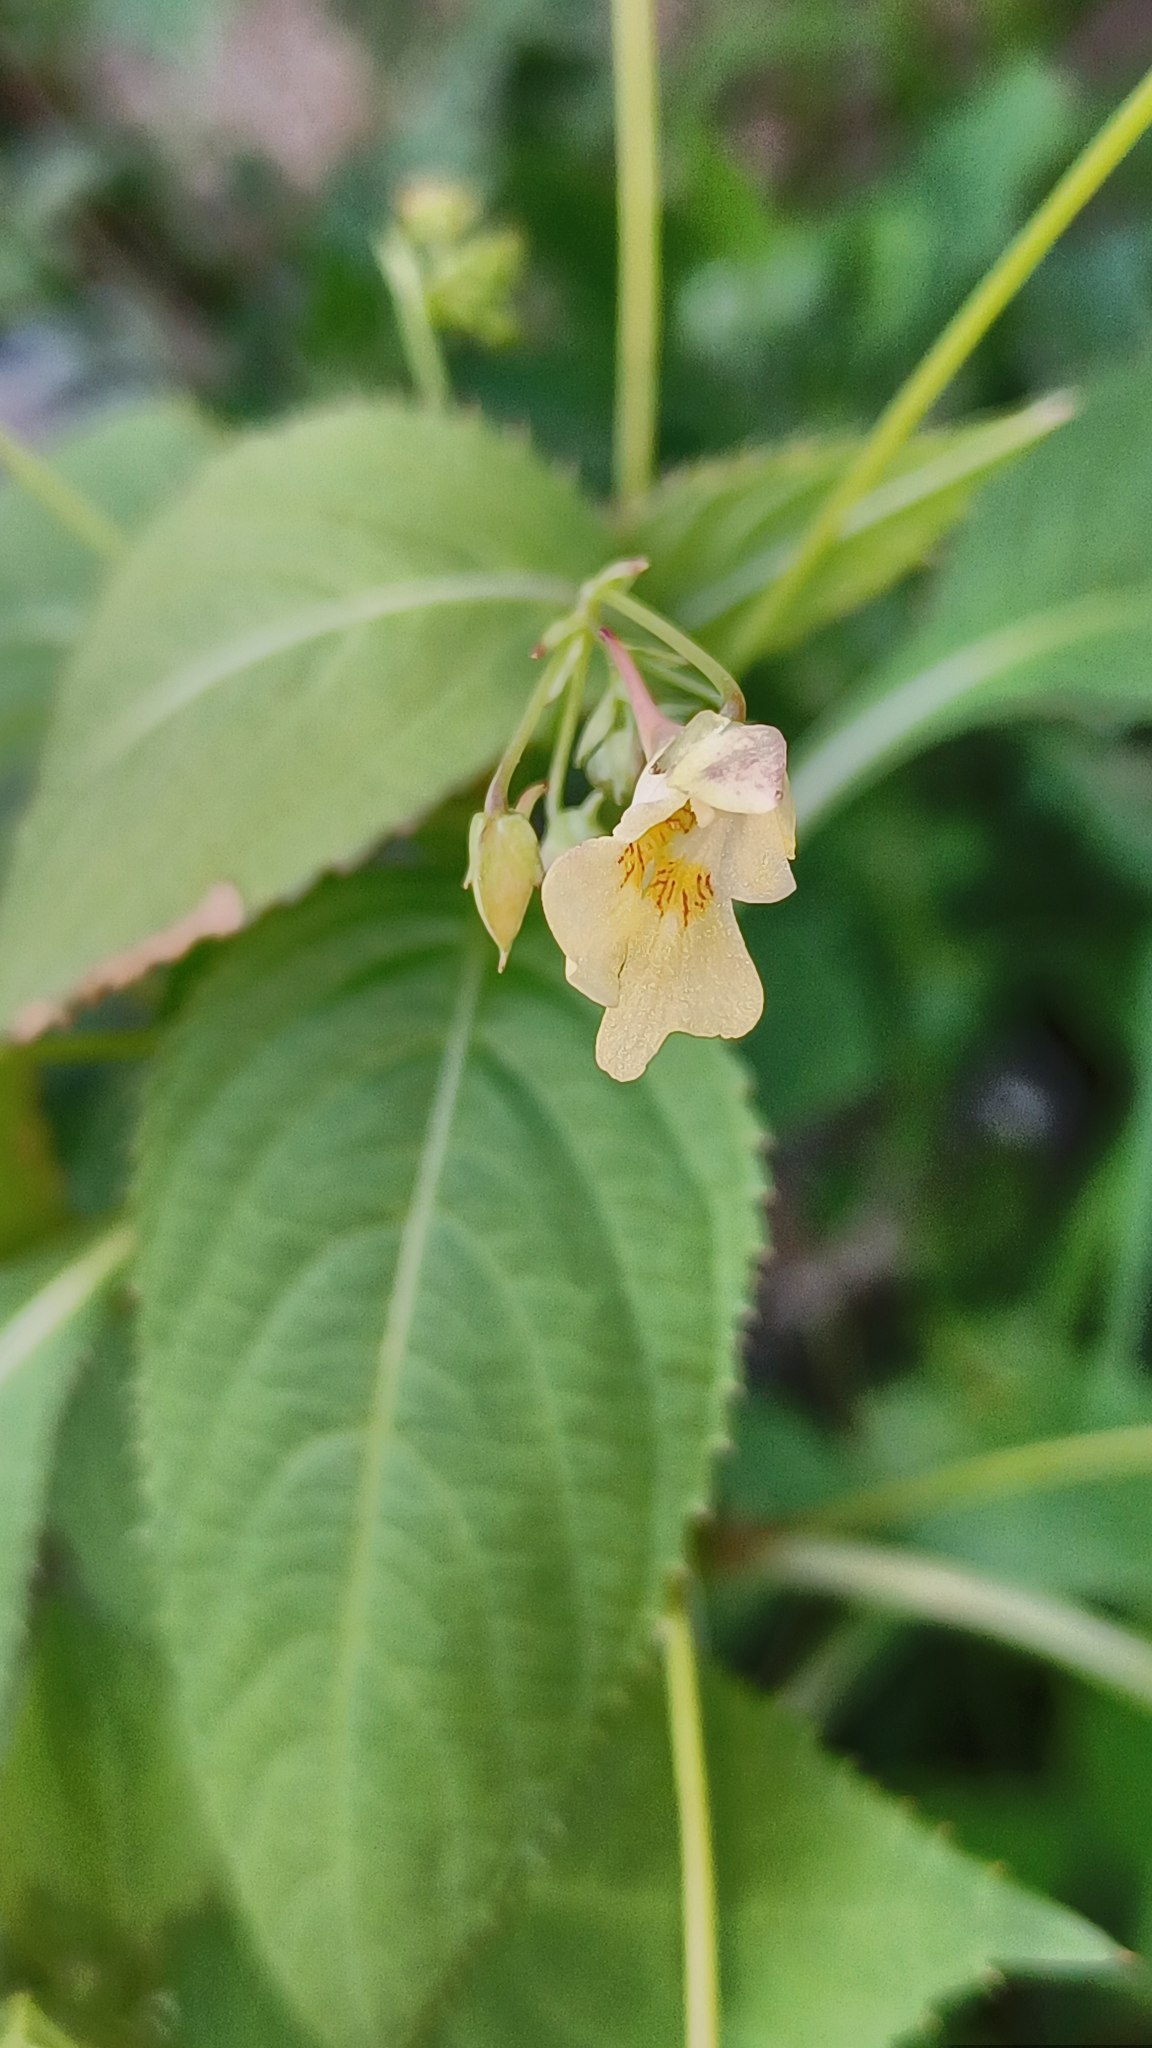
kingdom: Plantae
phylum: Tracheophyta
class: Magnoliopsida
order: Ericales
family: Balsaminaceae
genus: Impatiens
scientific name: Impatiens parviflora
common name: Småblomstret balsamin
